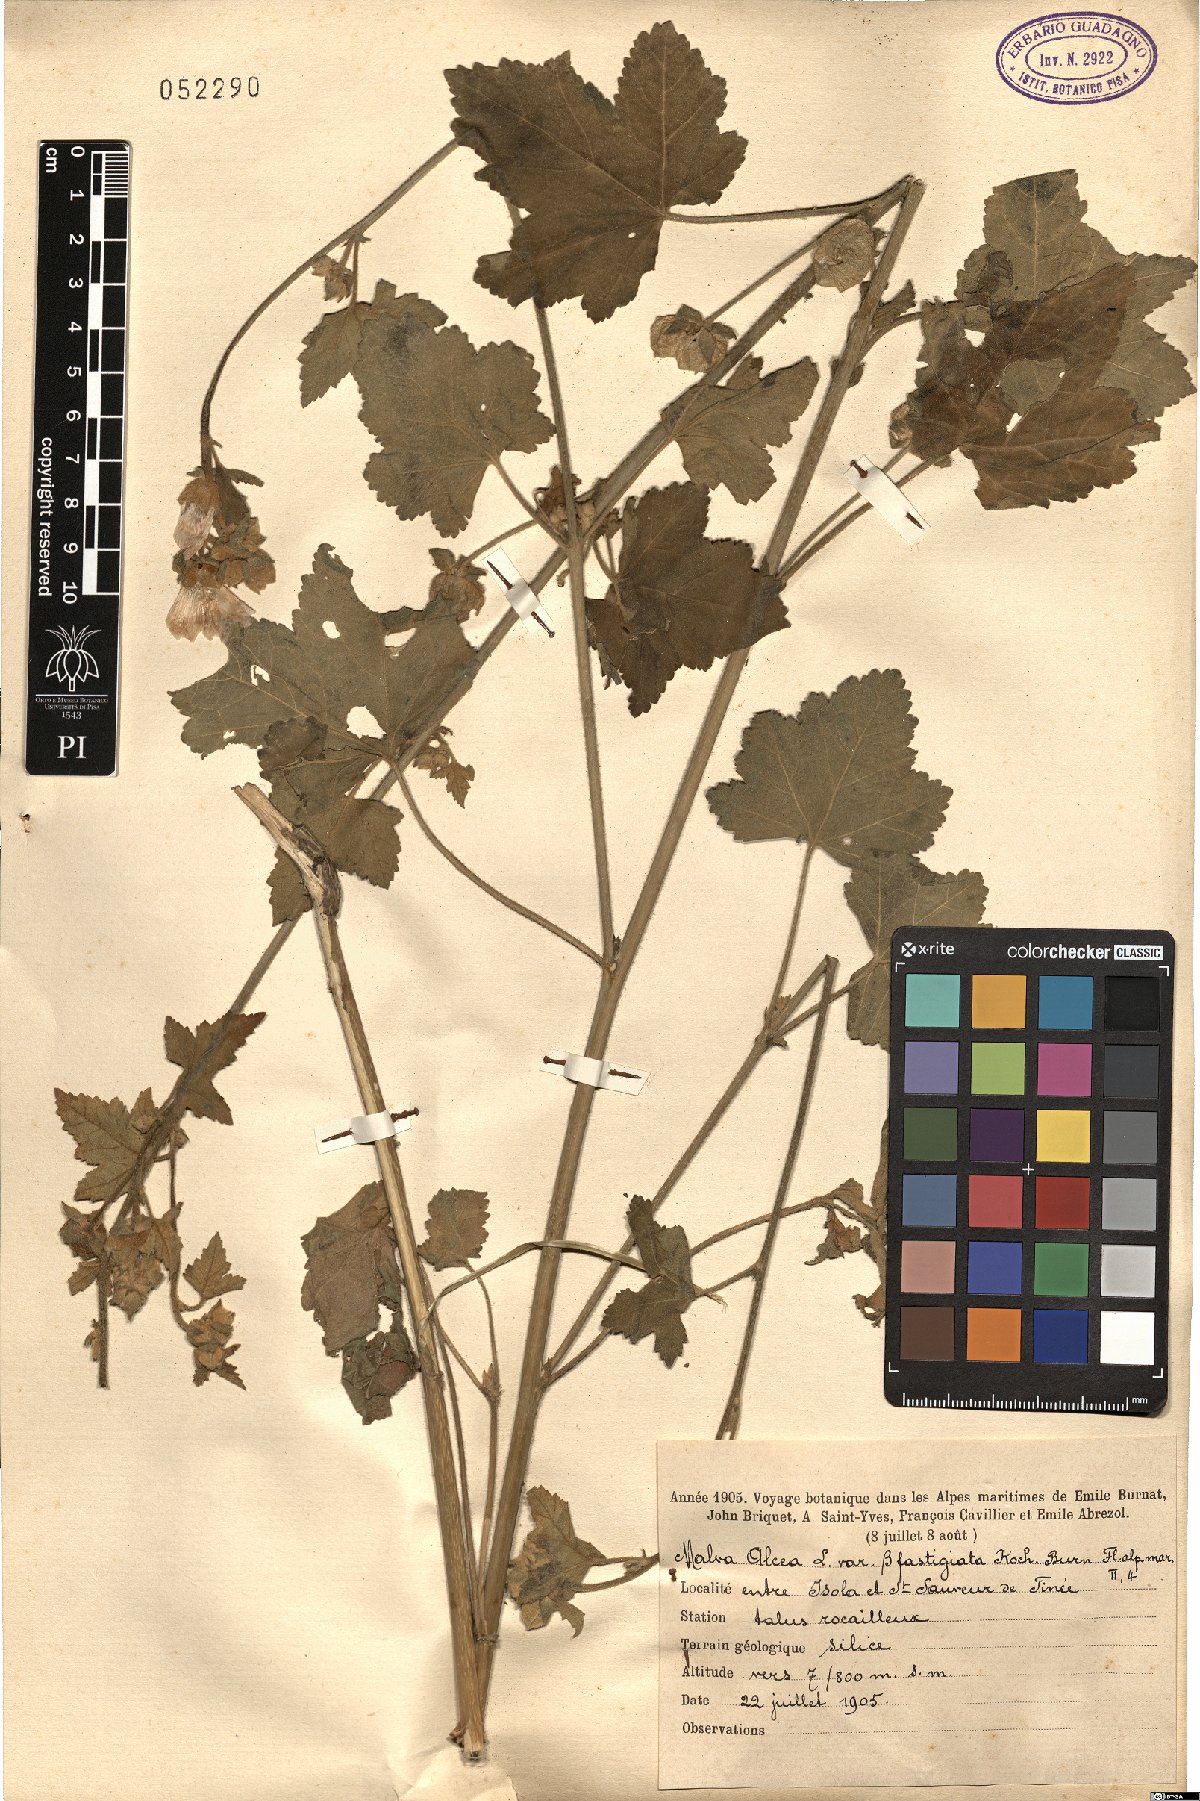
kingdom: Plantae
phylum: Tracheophyta
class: Magnoliopsida
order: Malvales
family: Malvaceae
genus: Malva
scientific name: Malva alcea
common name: Greater musk-mallow
